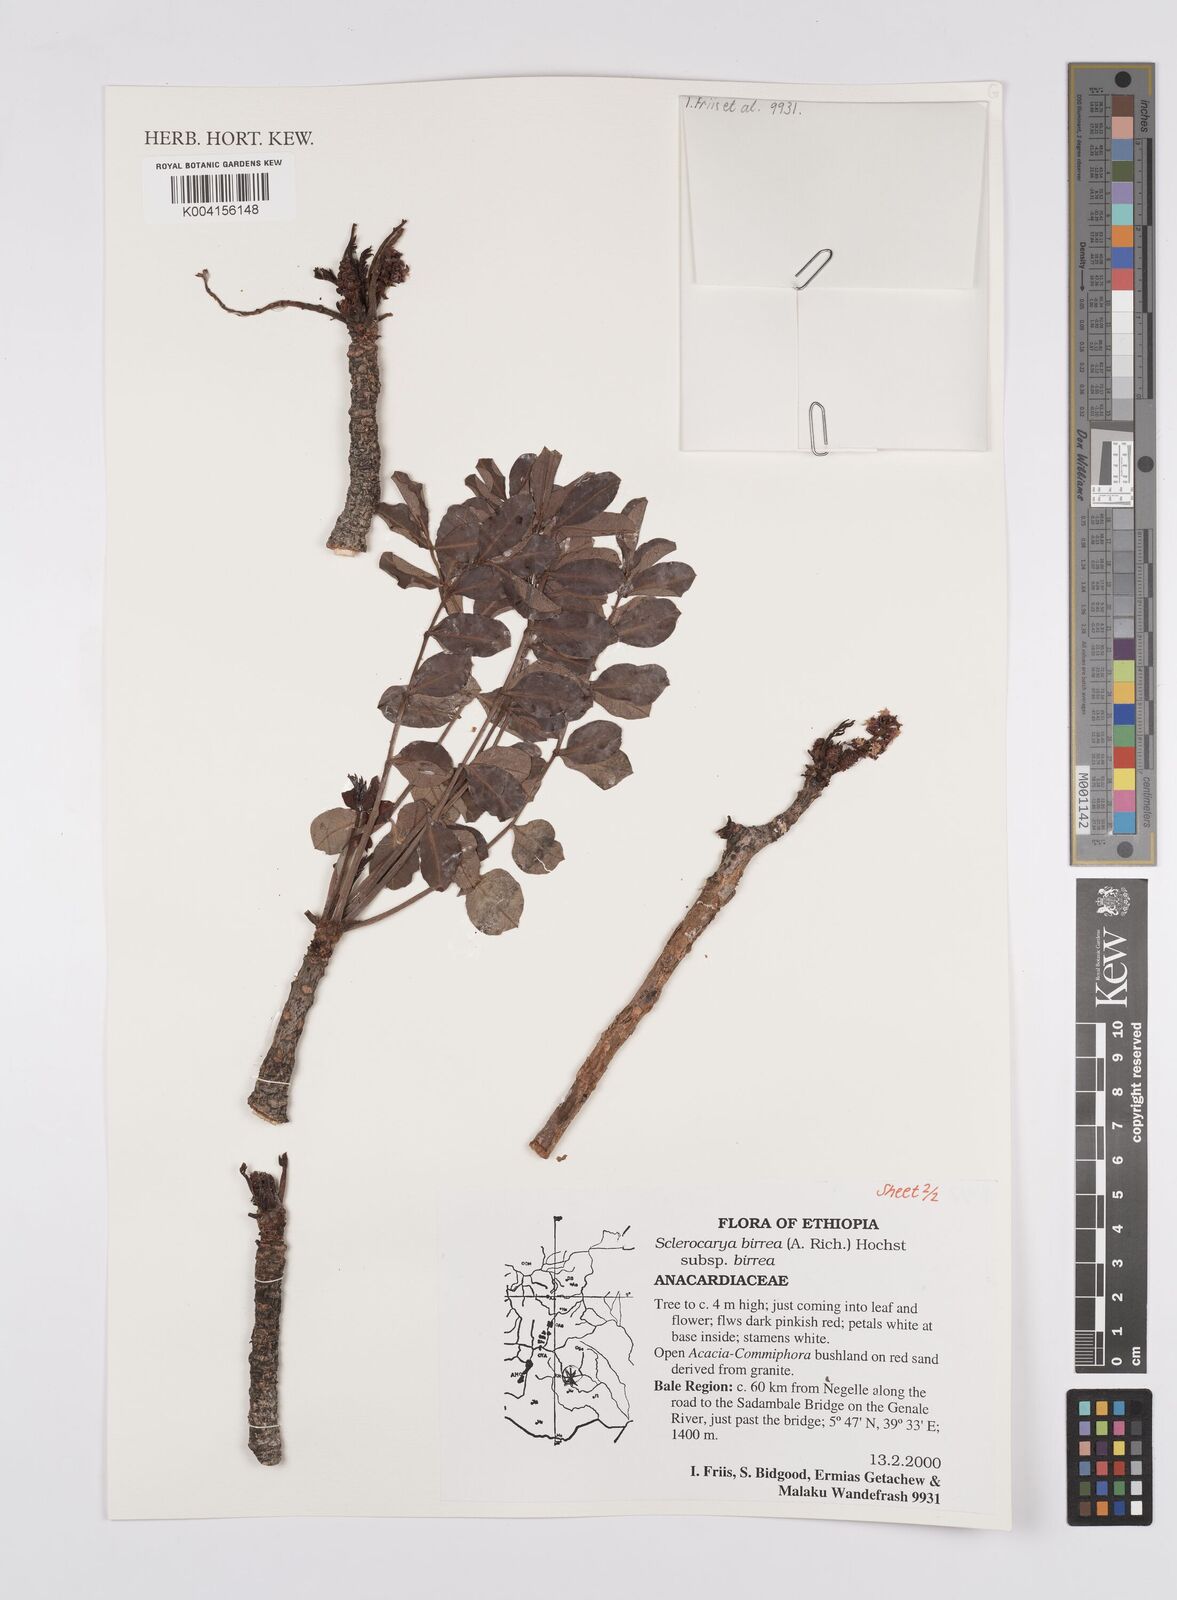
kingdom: Plantae
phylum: Tracheophyta
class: Magnoliopsida
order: Sapindales
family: Anacardiaceae
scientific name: Anacardiaceae
